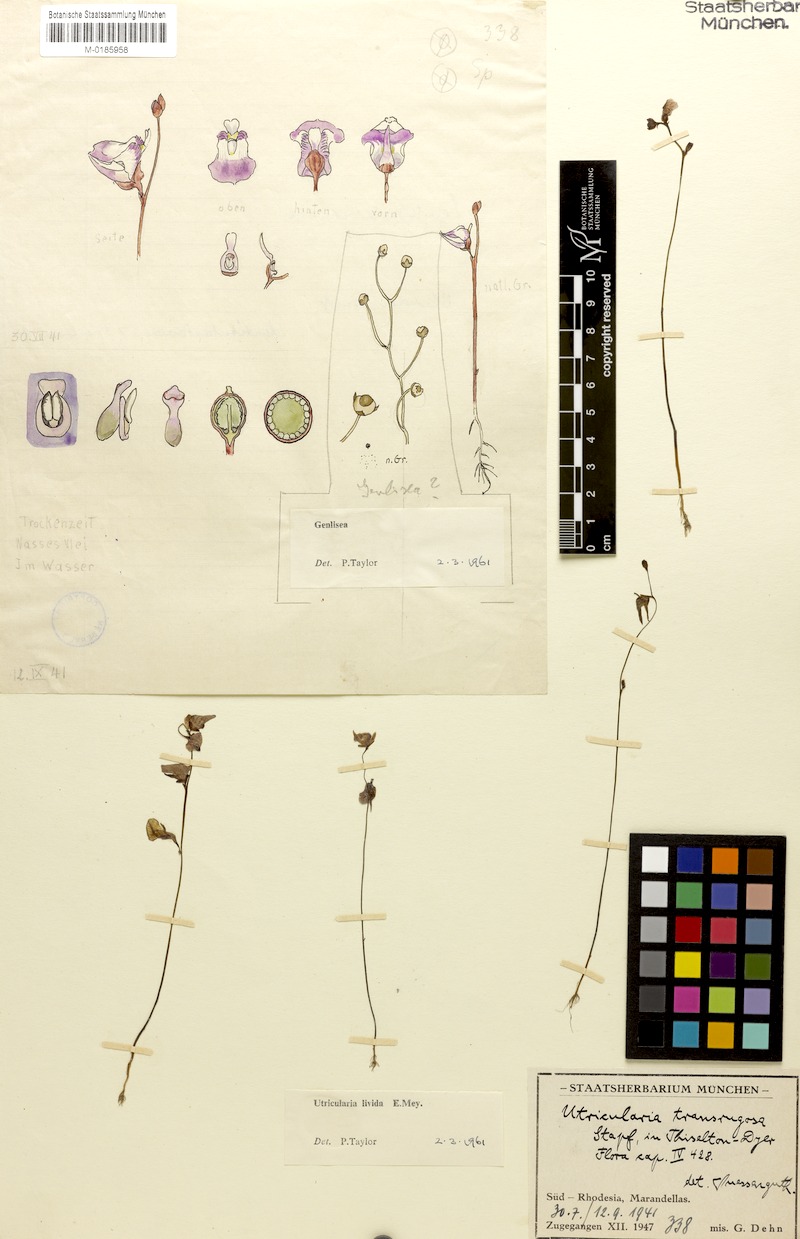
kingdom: Plantae
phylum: Tracheophyta
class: Magnoliopsida
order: Lamiales
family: Lentibulariaceae
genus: Utricularia
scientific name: Utricularia livida
